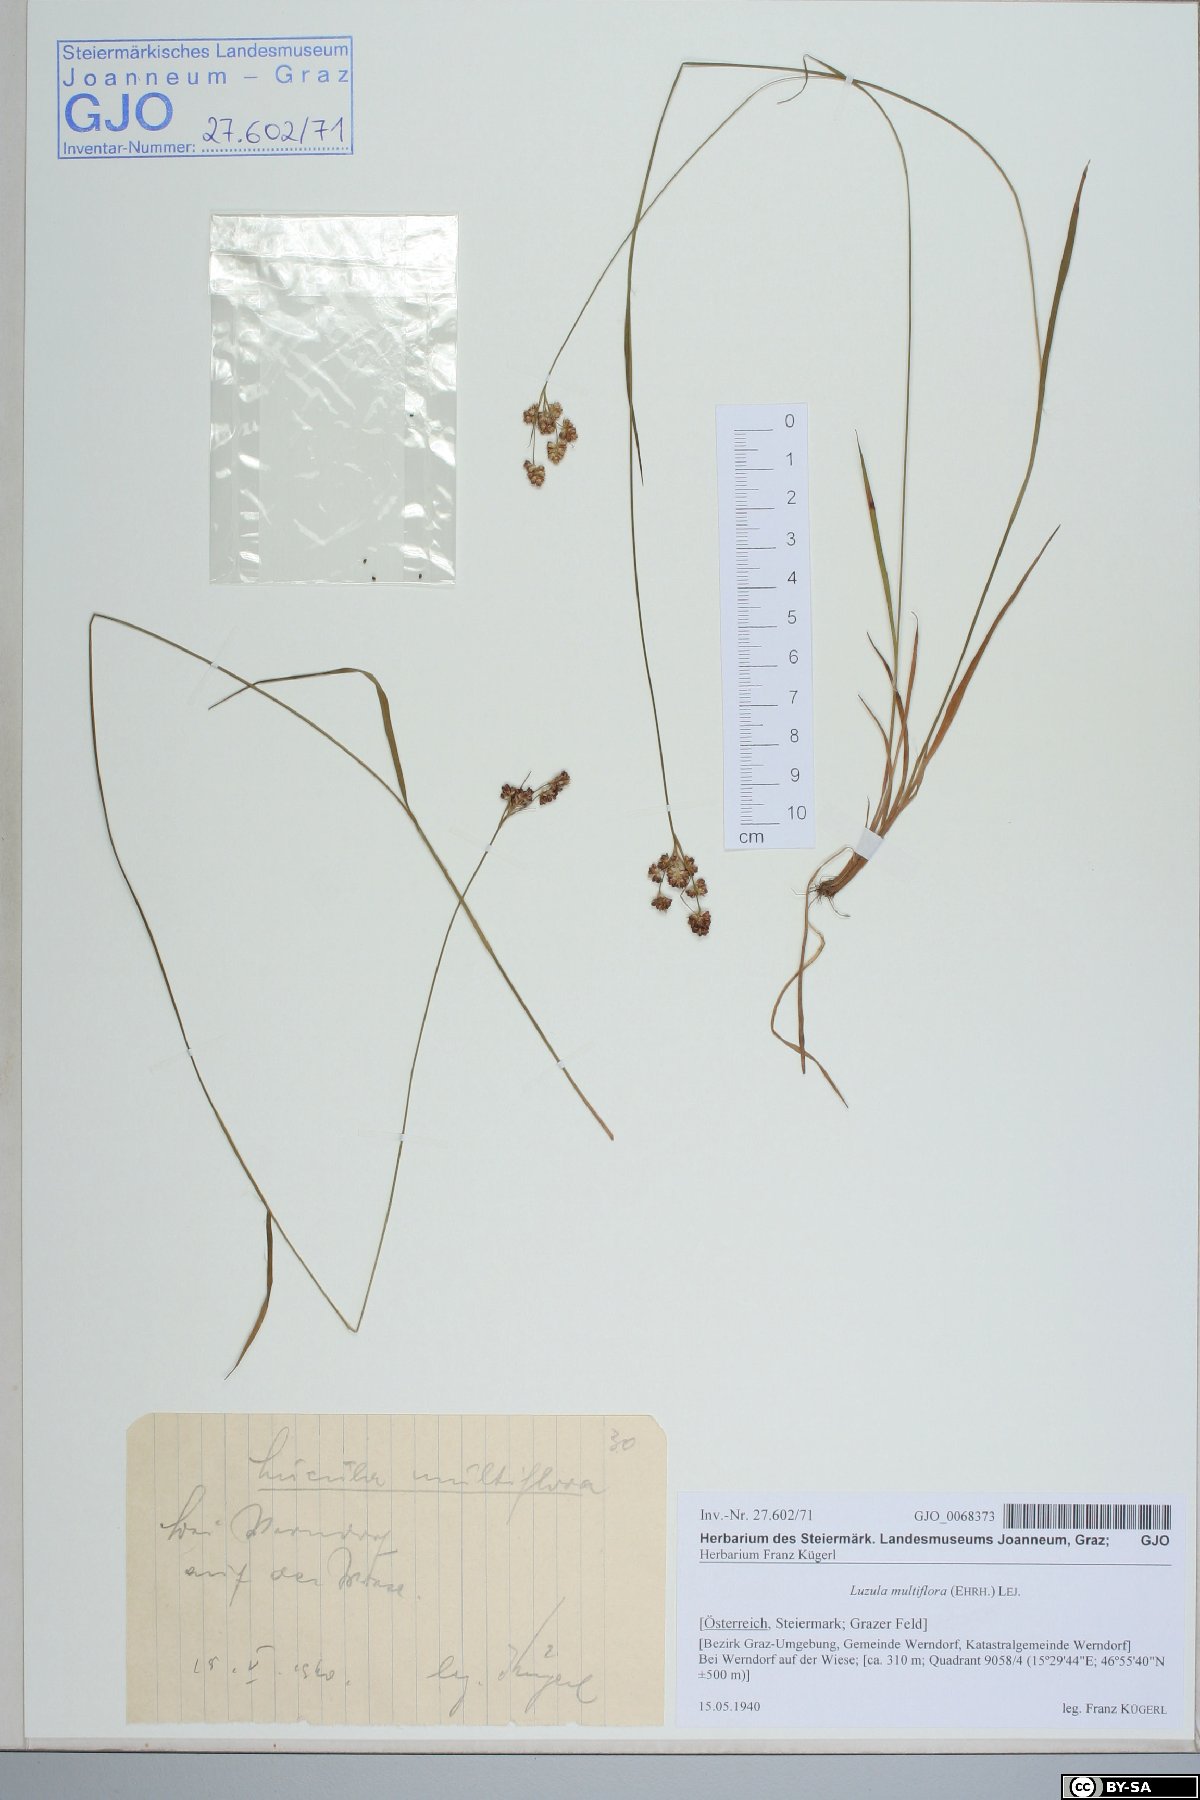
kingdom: Plantae
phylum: Tracheophyta
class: Liliopsida
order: Poales
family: Juncaceae
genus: Luzula
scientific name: Luzula multiflora
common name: Heath wood-rush
